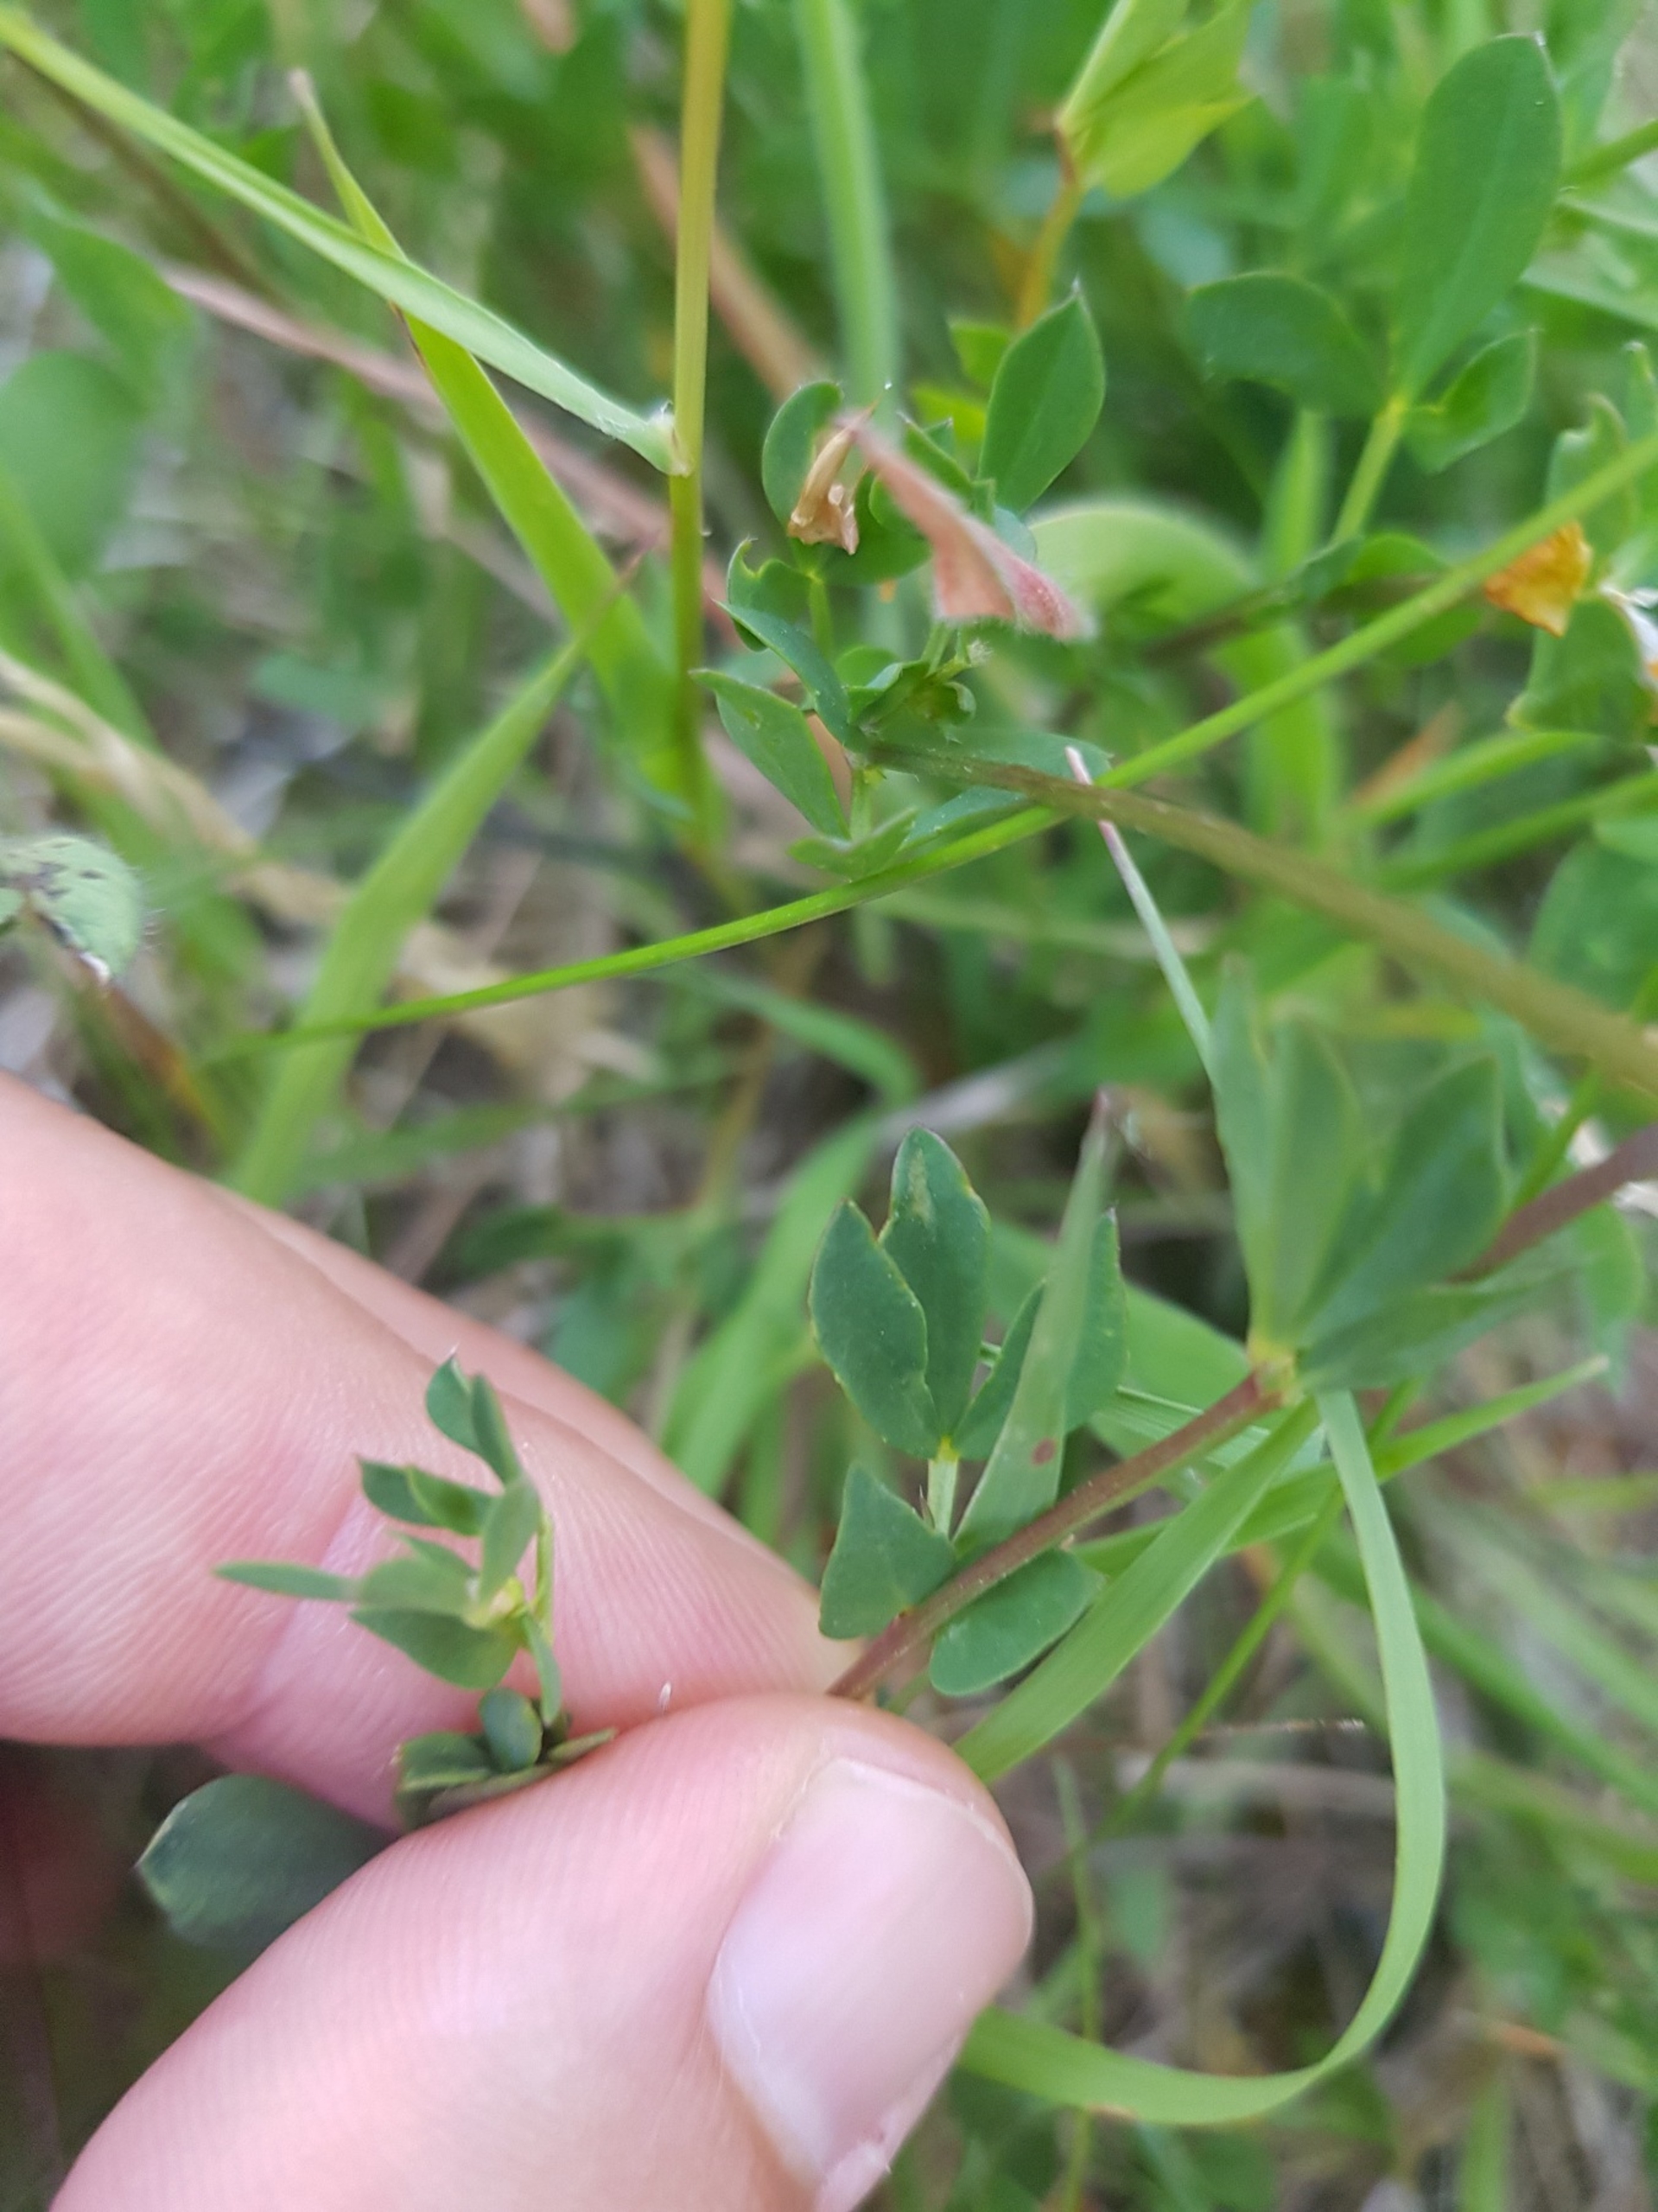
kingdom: Plantae
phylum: Tracheophyta
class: Magnoliopsida
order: Fabales
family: Fabaceae
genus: Lotus
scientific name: Lotus corniculatus
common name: Almindelig kællingetand
